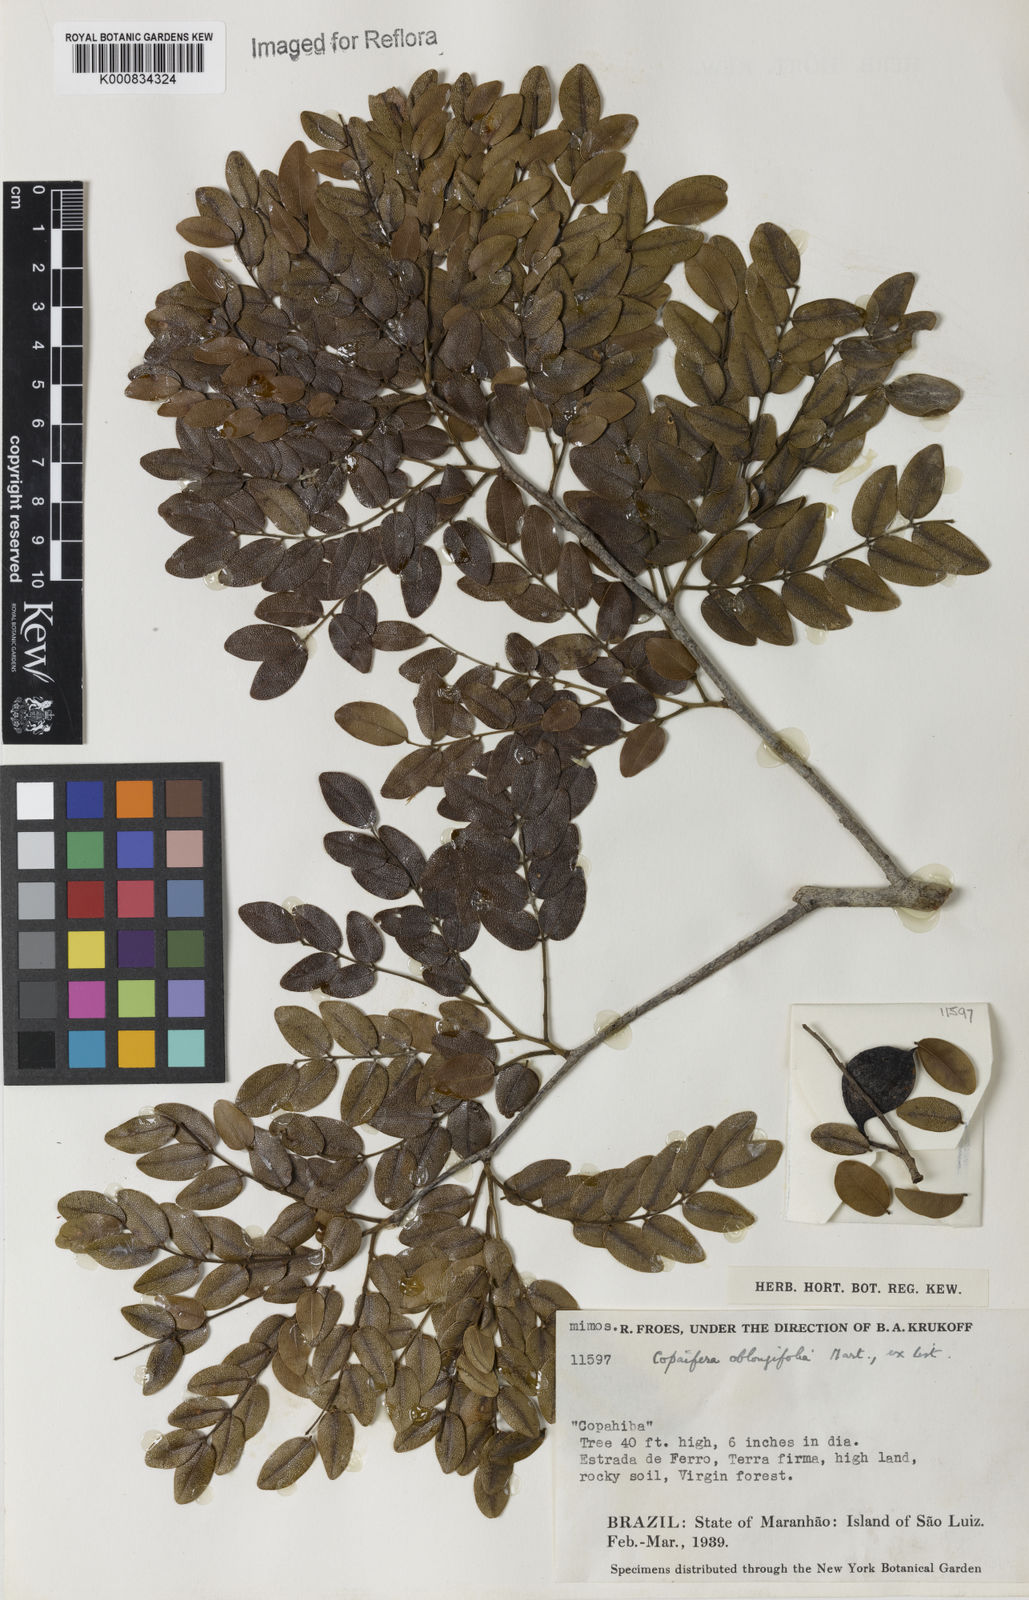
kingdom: Plantae
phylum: Tracheophyta
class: Magnoliopsida
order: Fabales
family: Fabaceae
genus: Copaifera
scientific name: Copaifera
